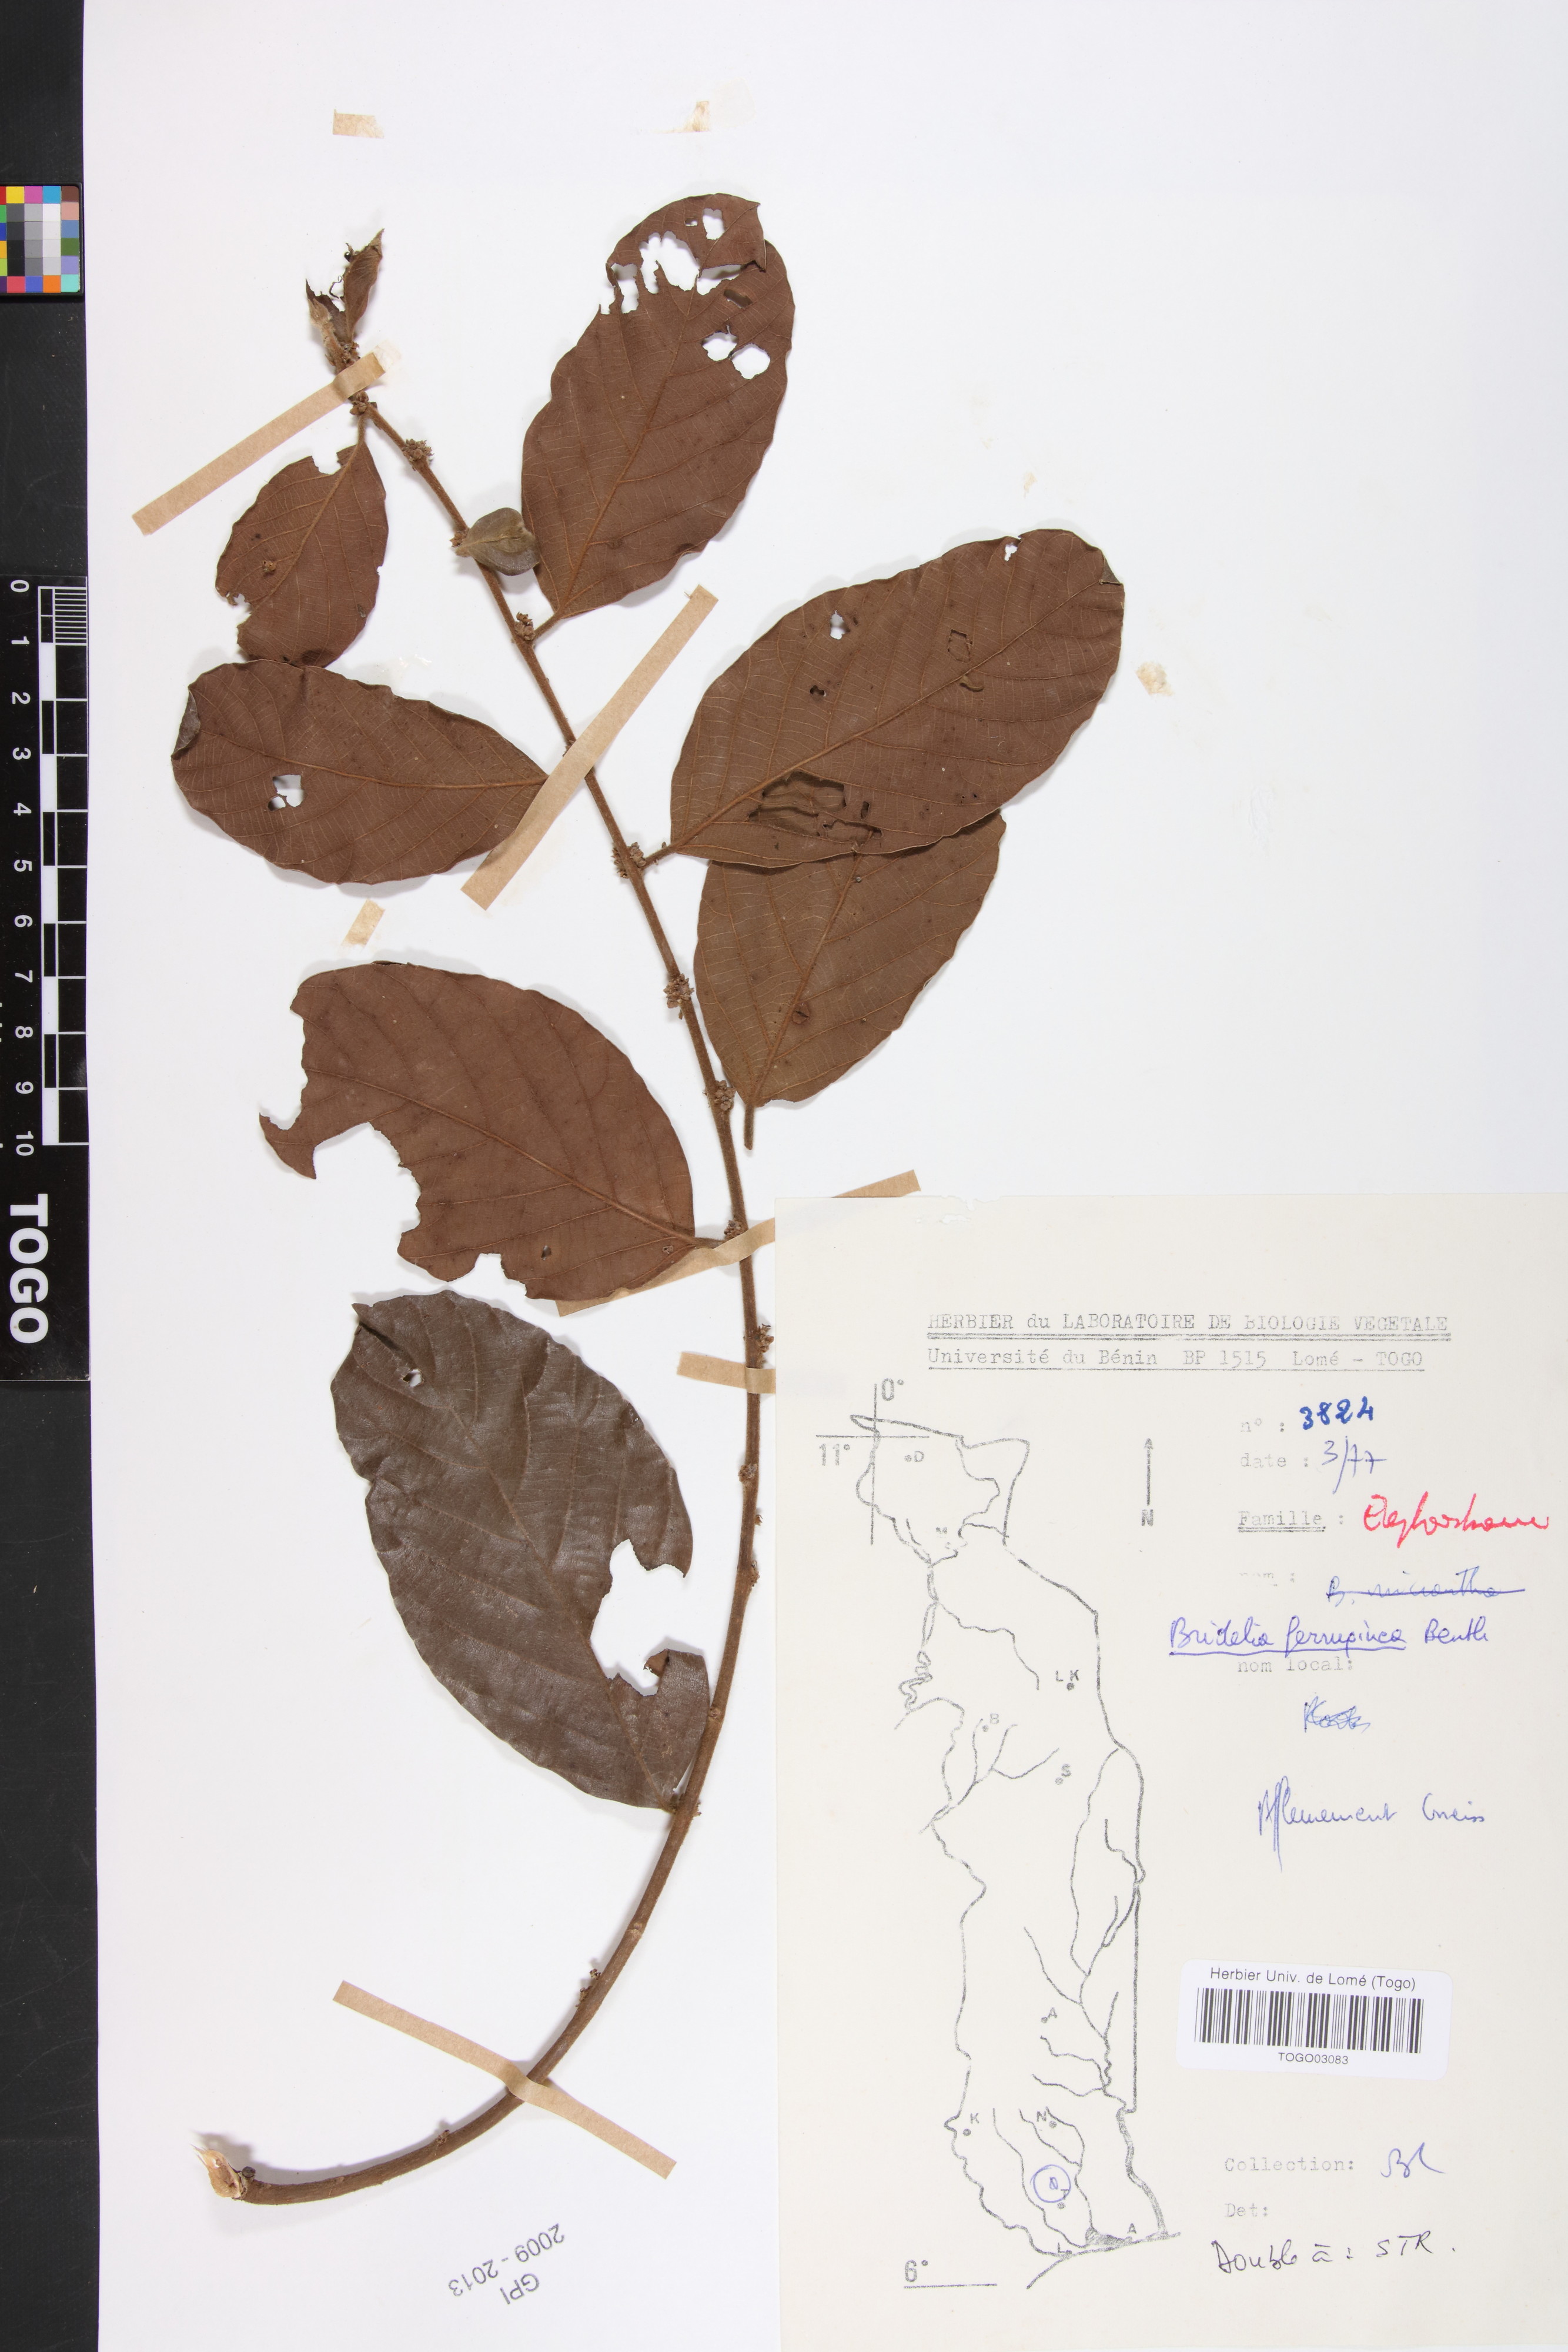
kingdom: Plantae
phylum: Tracheophyta
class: Magnoliopsida
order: Malpighiales
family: Phyllanthaceae
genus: Bridelia
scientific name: Bridelia ferruginea
